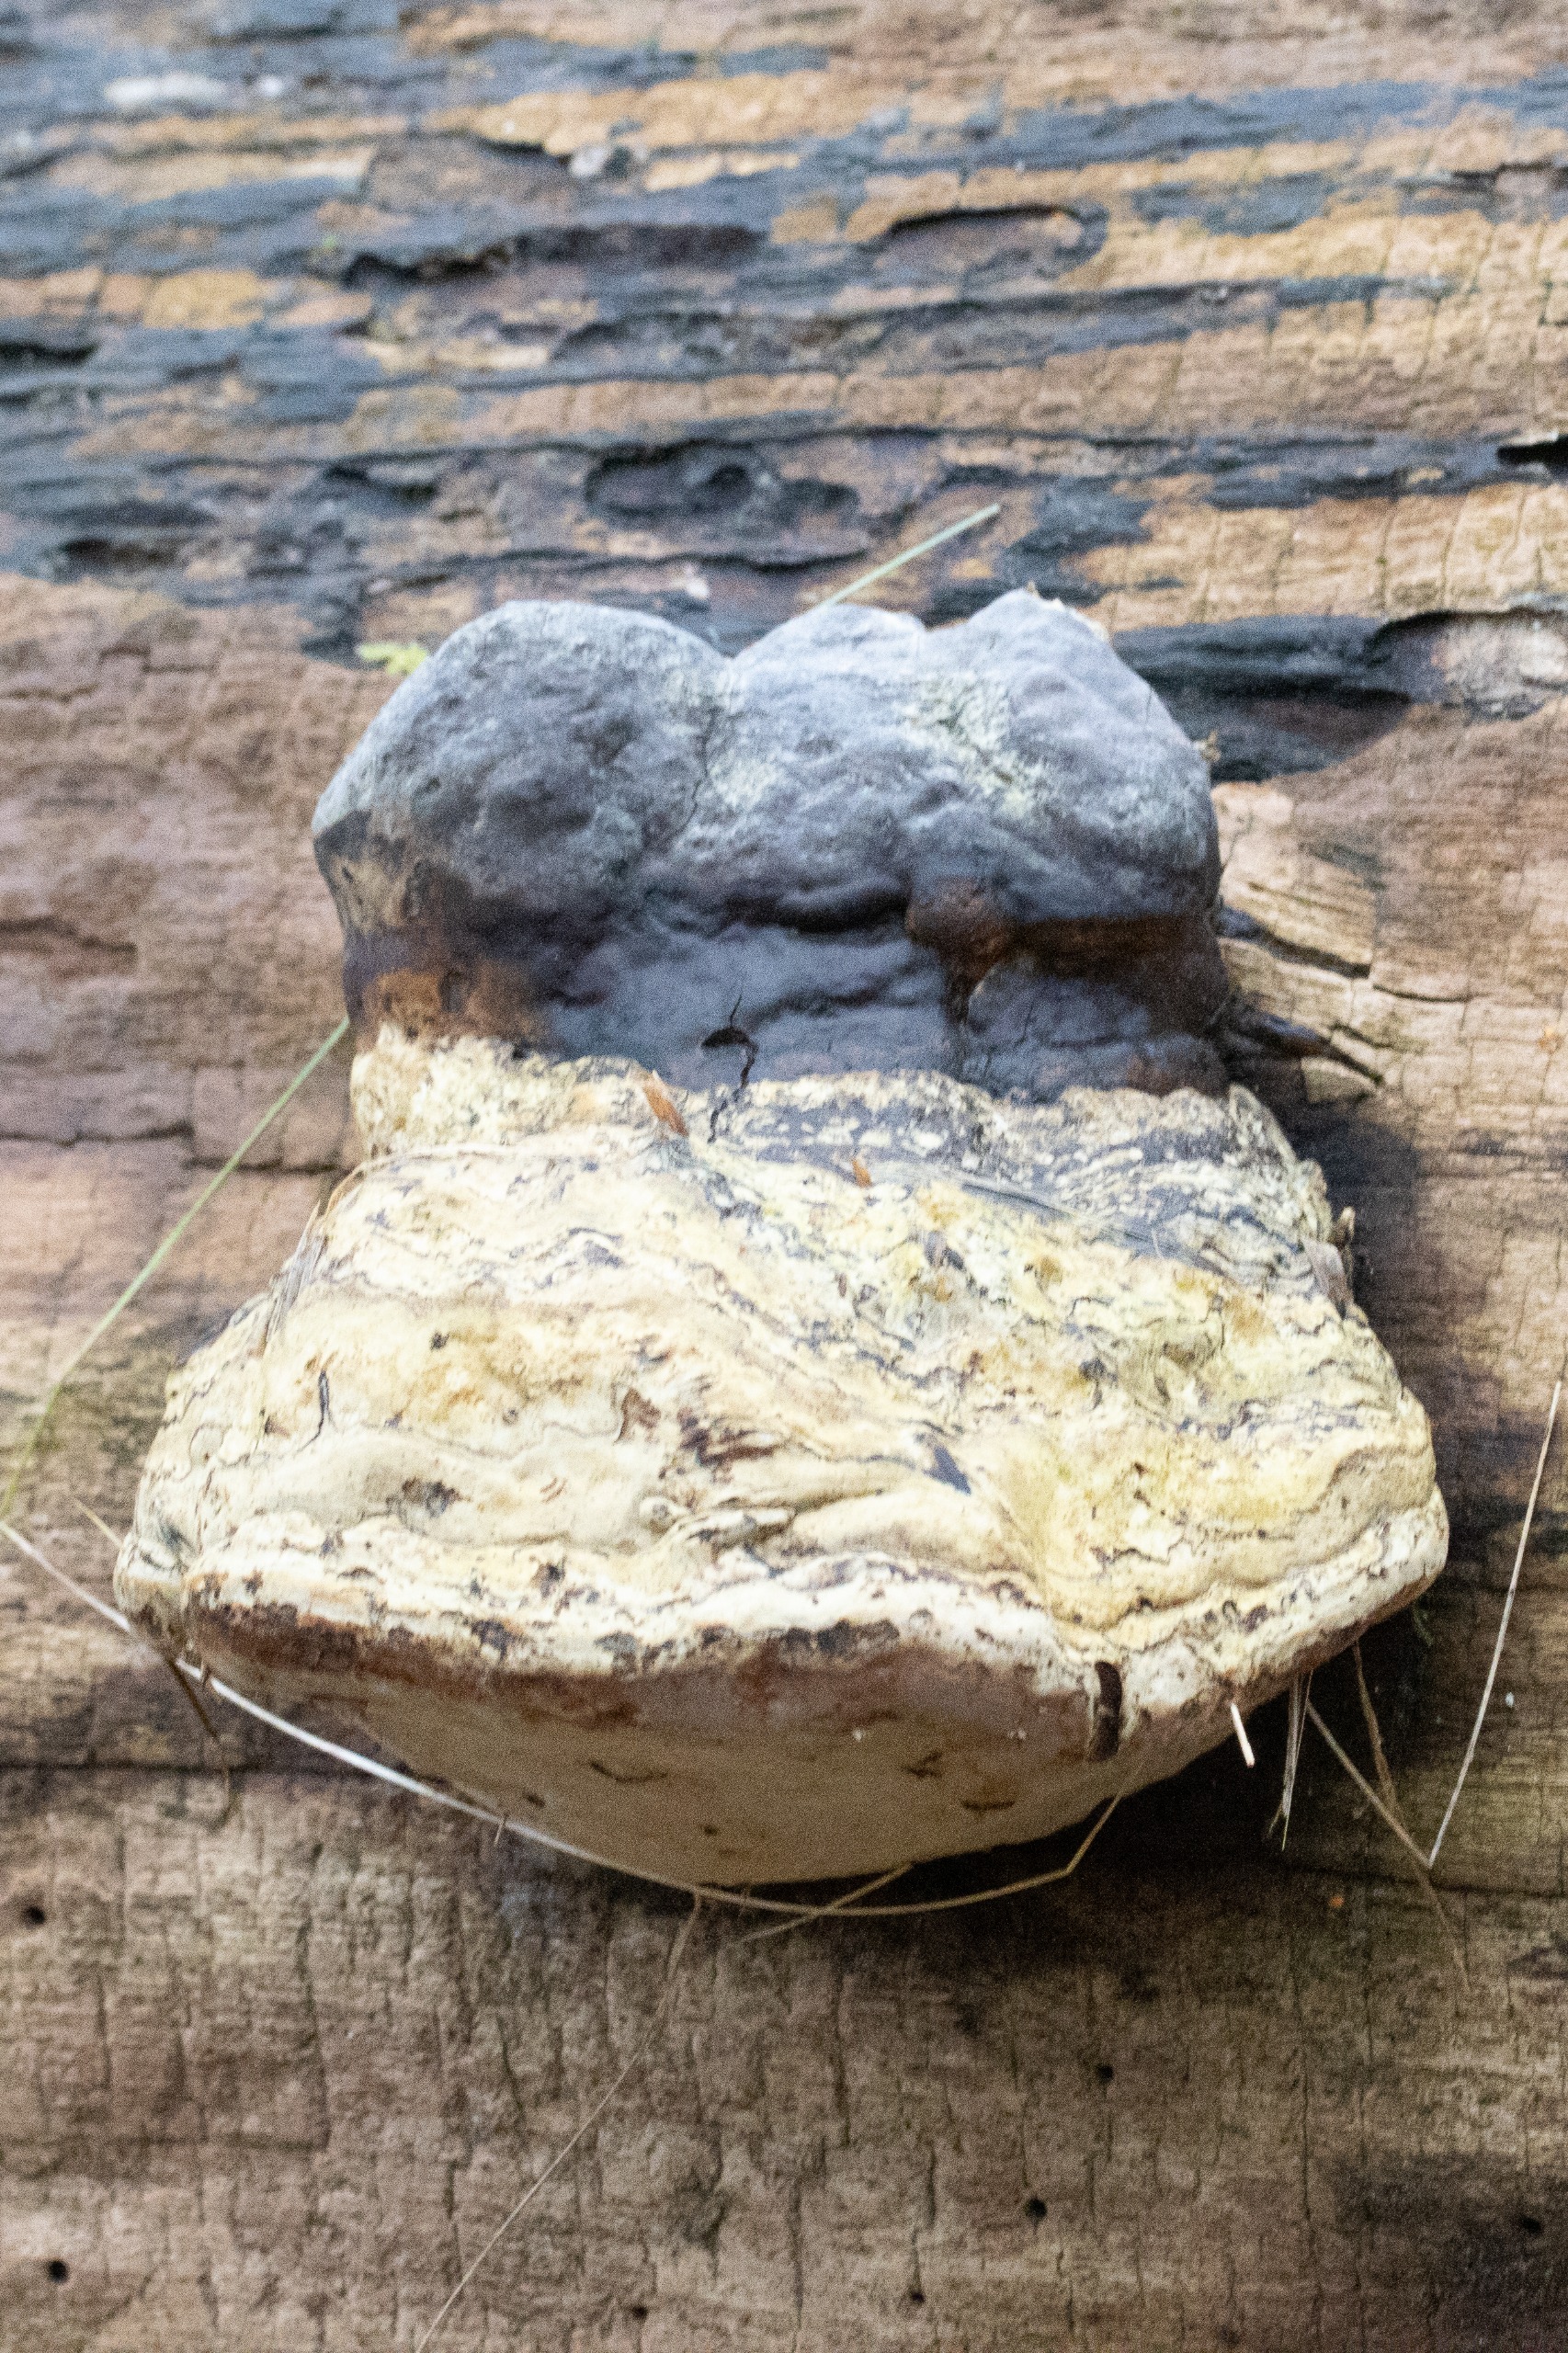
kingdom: Fungi
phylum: Basidiomycota
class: Agaricomycetes
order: Polyporales
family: Polyporaceae
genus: Fomes
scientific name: Fomes fomentarius
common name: Tøndersvamp
